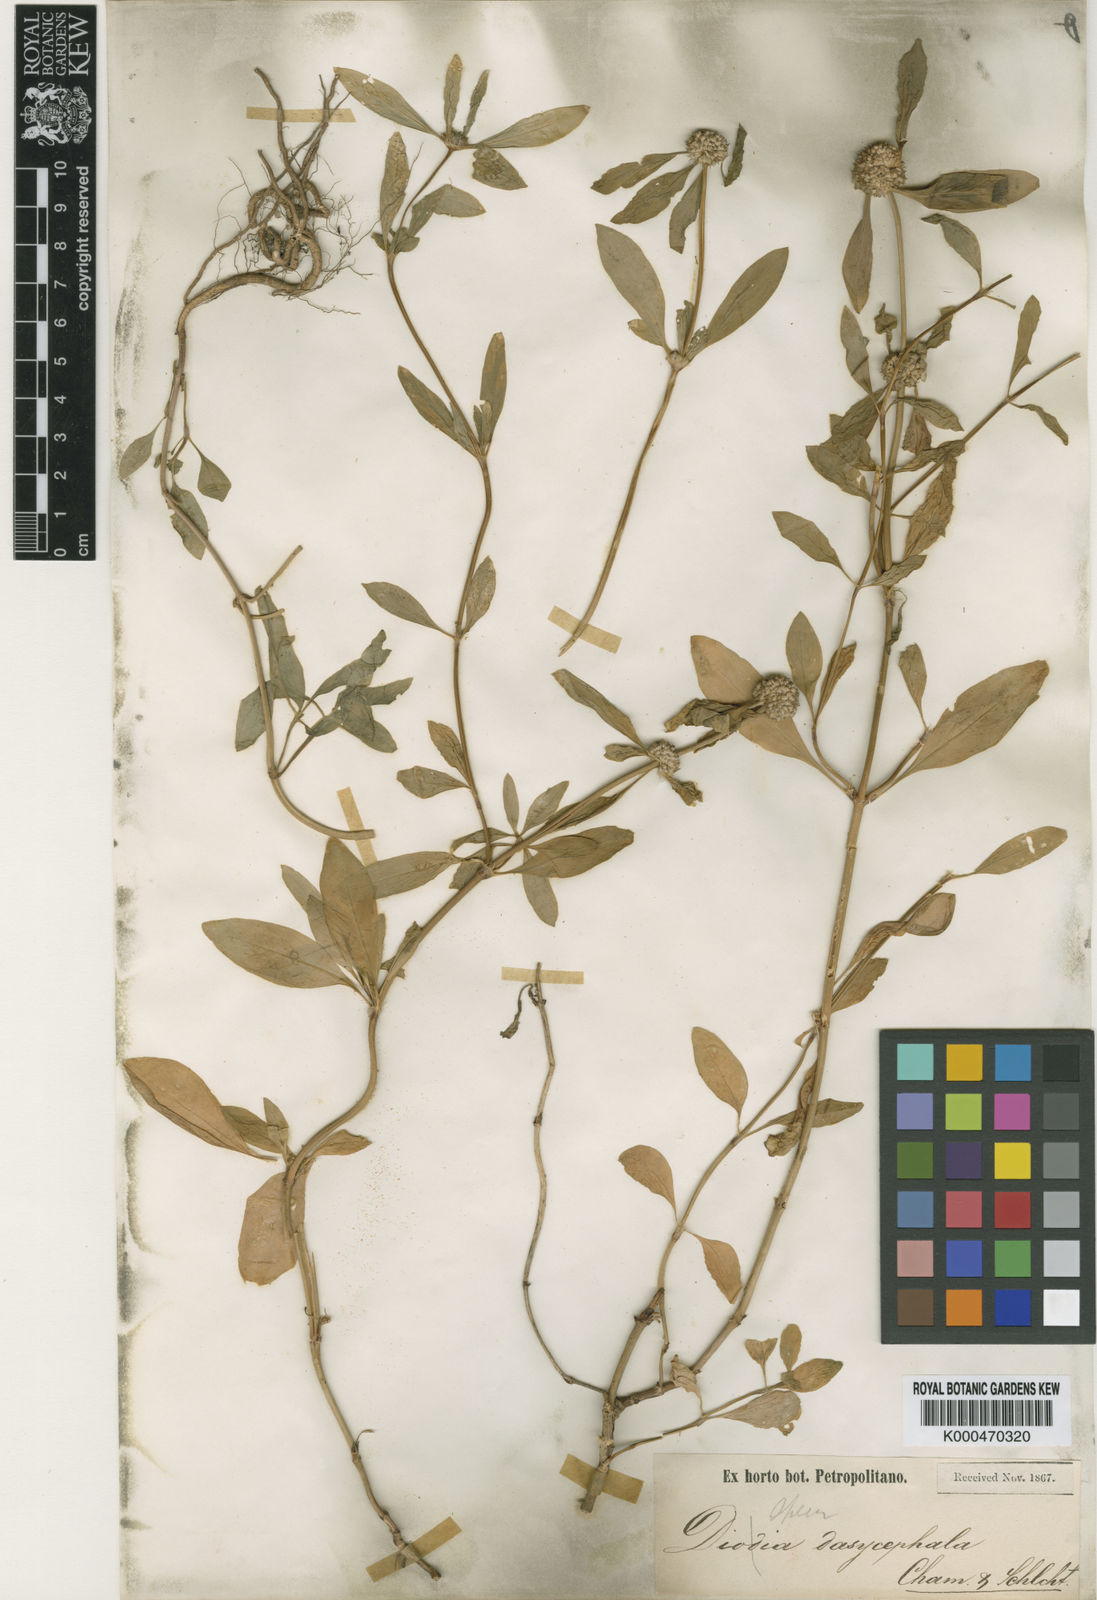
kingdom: Plantae
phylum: Tracheophyta
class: Magnoliopsida
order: Gentianales
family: Rubiaceae
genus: Spermacoce
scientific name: Spermacoce dasycephala
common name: False buttonweed
